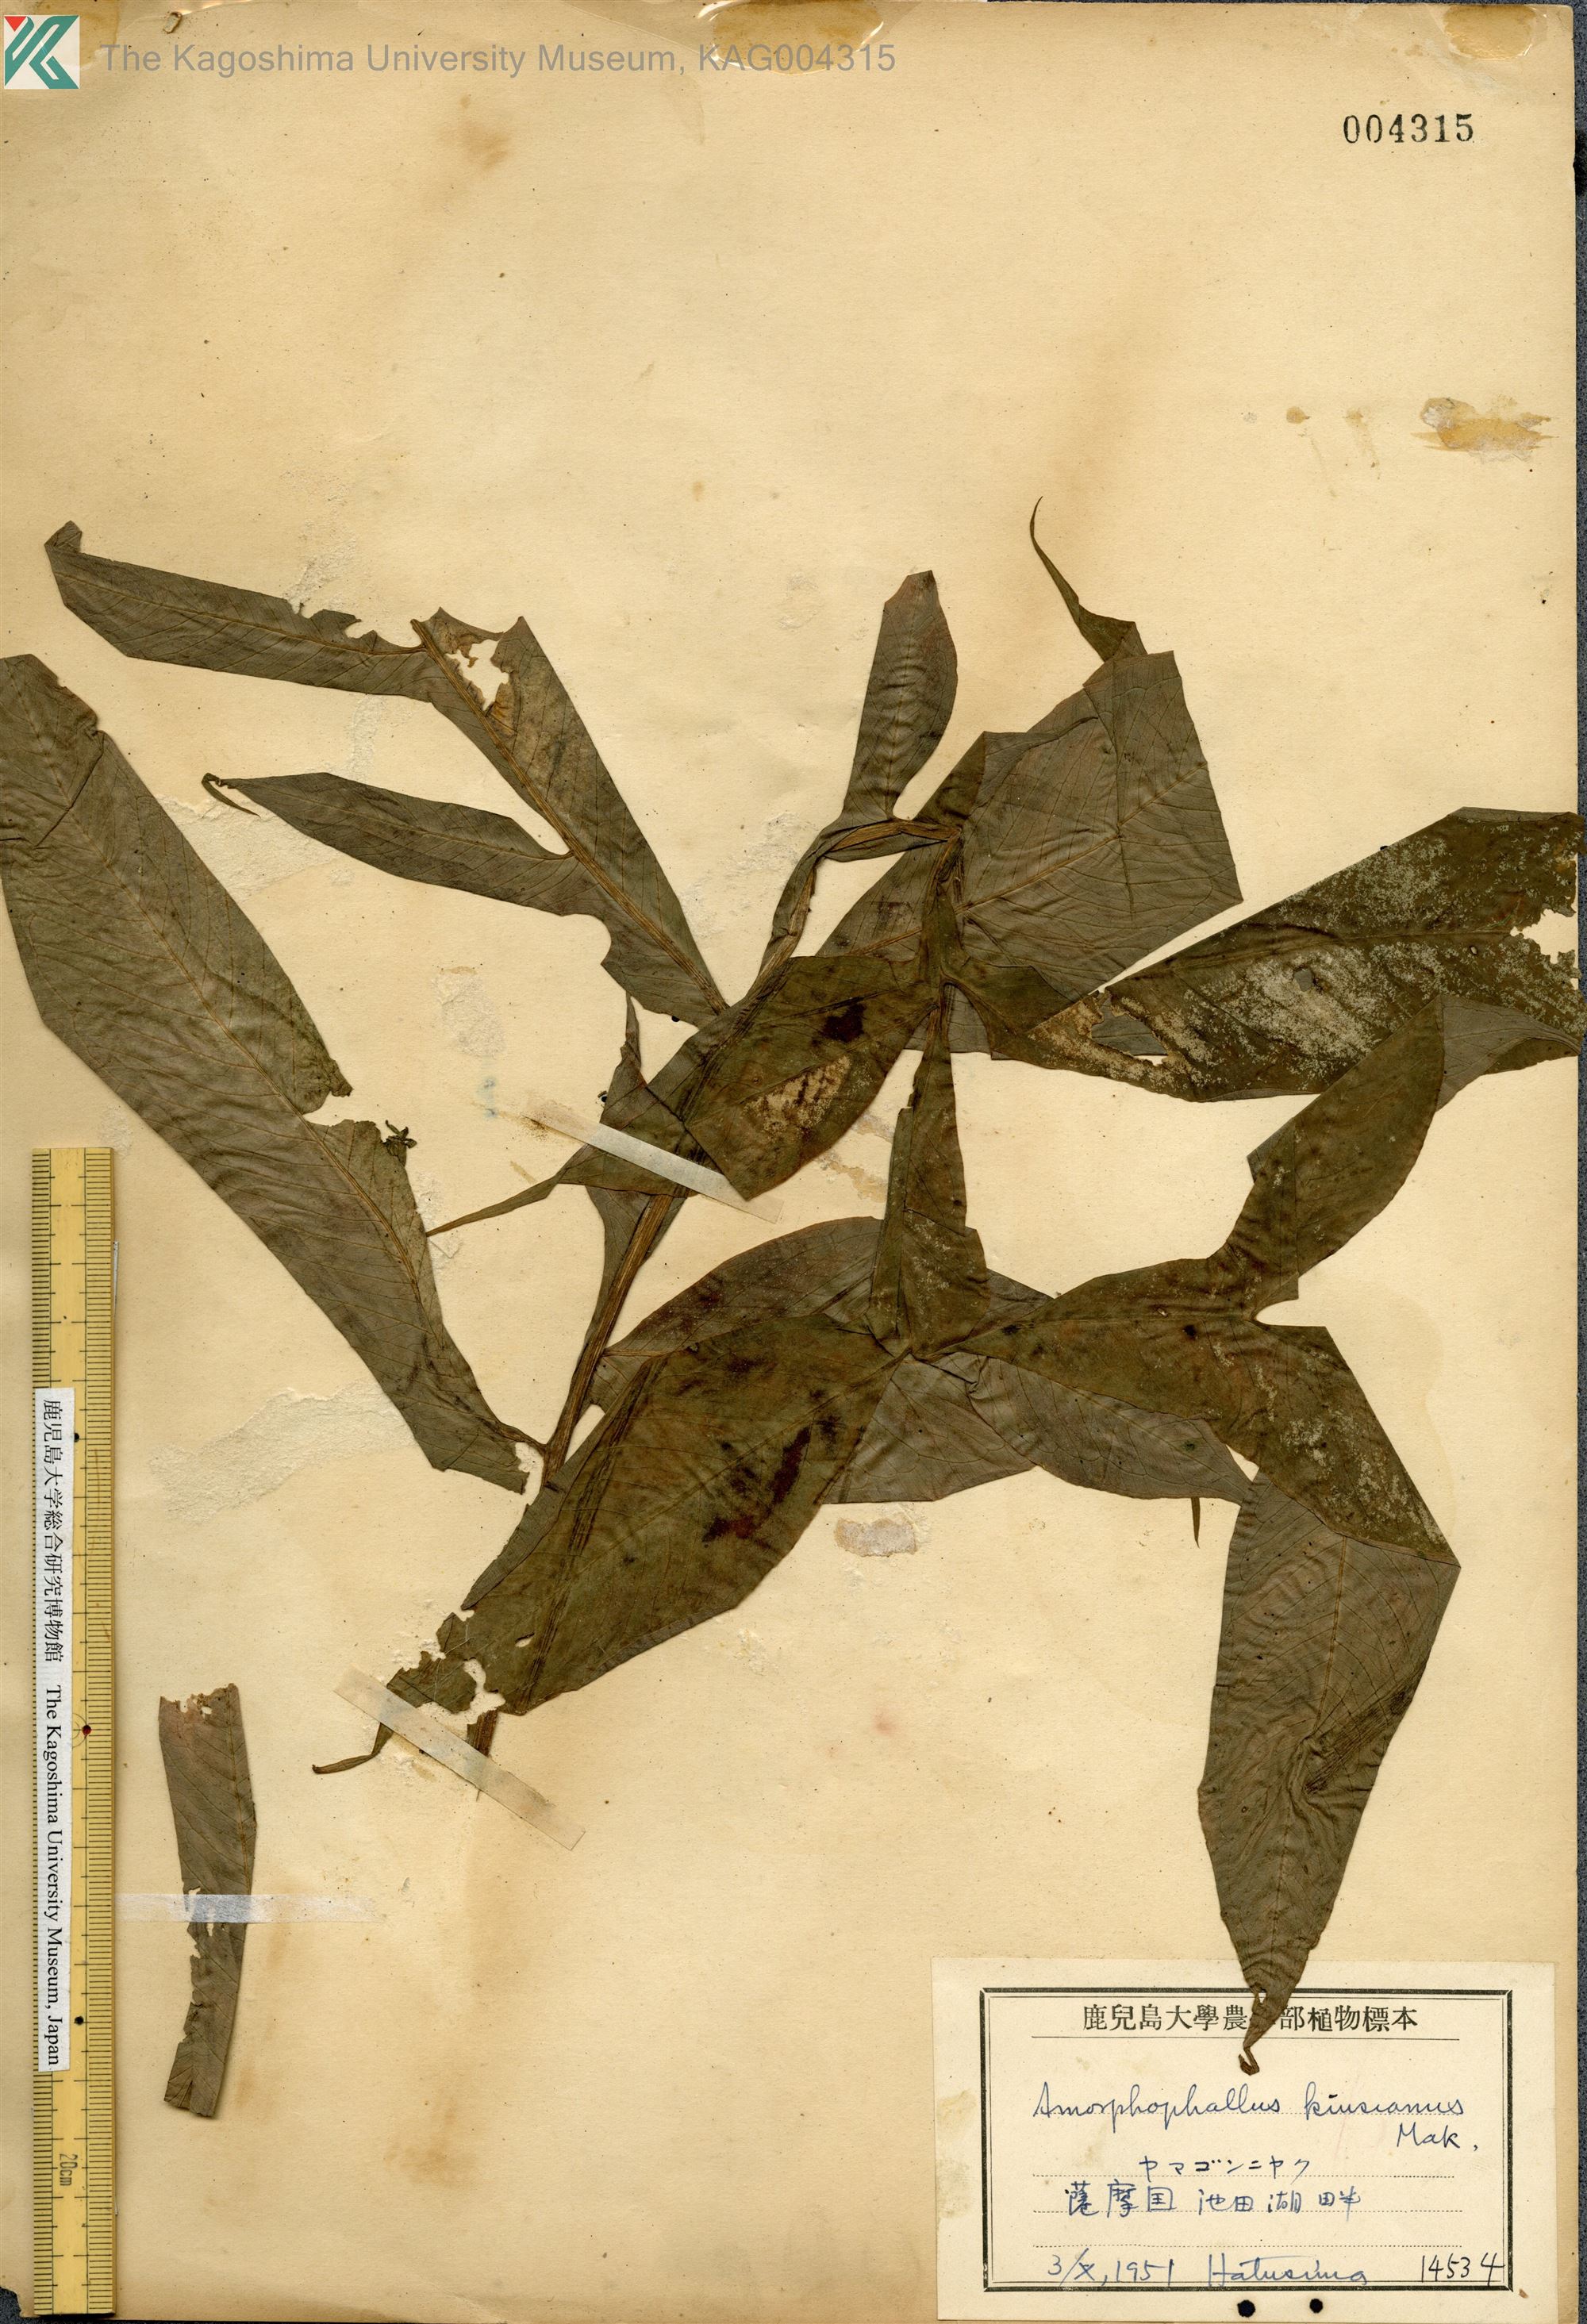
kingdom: Plantae
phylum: Tracheophyta
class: Liliopsida
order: Alismatales
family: Araceae
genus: Amorphophallus
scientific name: Amorphophallus kiusianus
